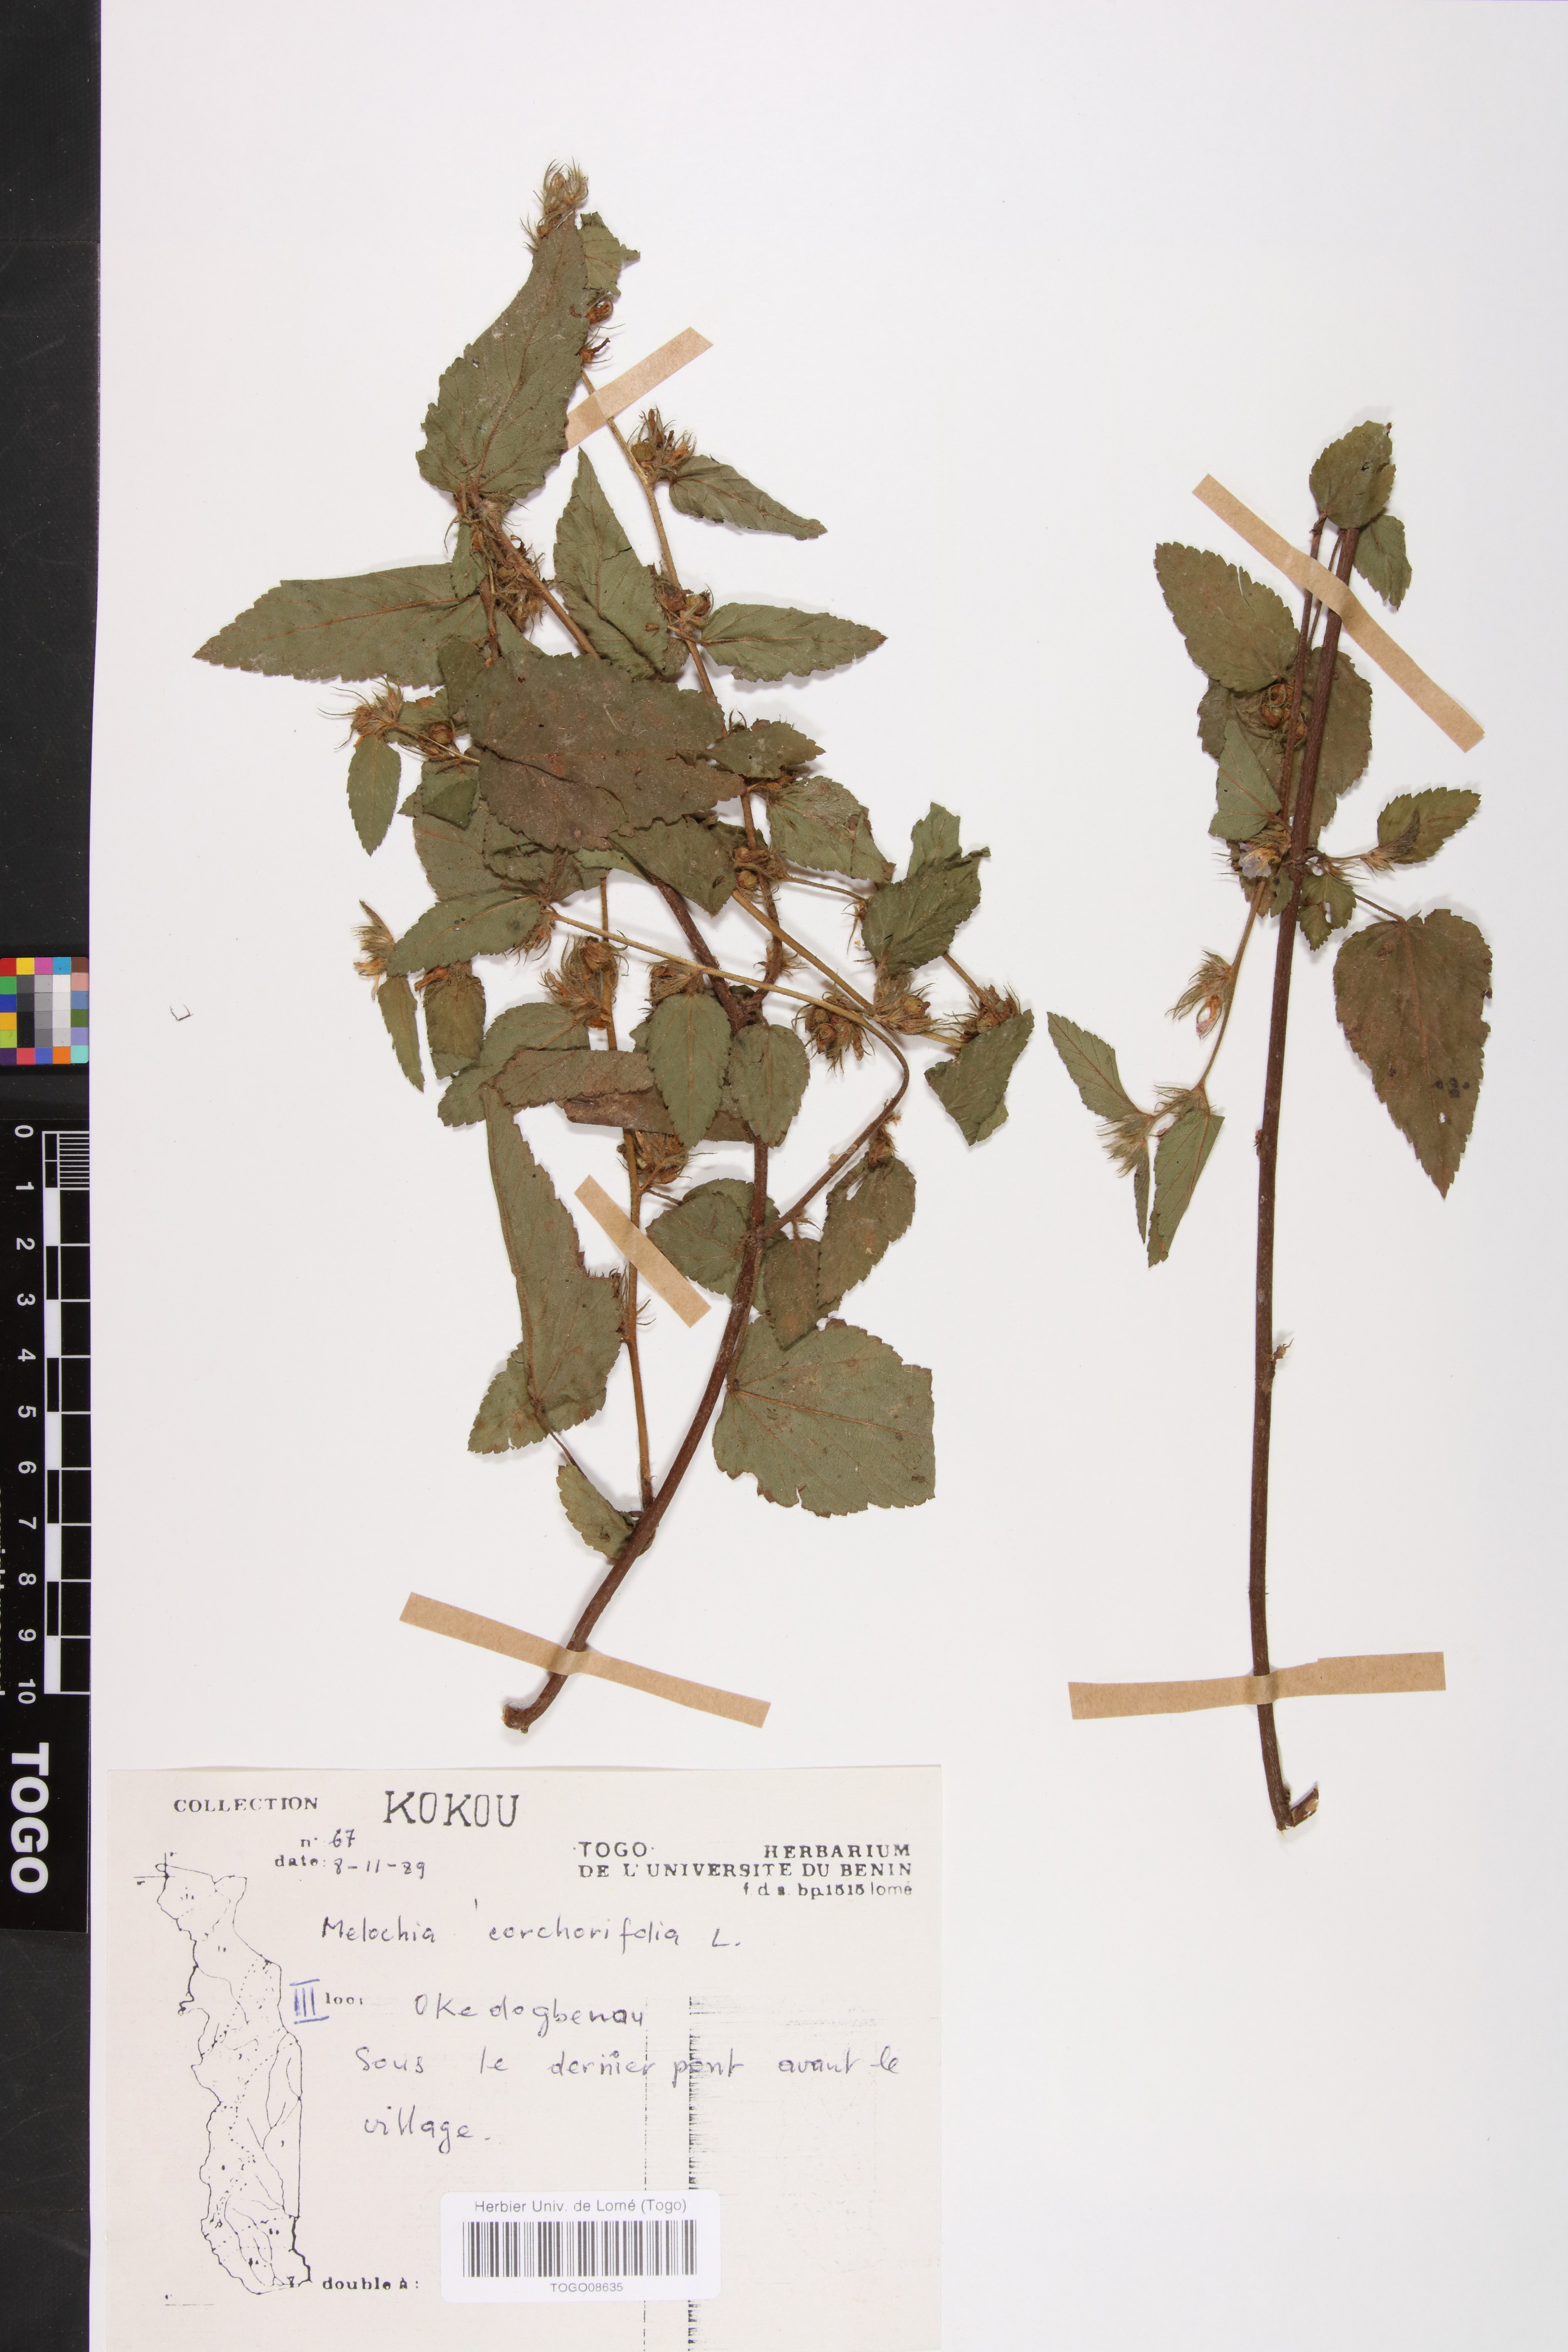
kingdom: Plantae
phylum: Tracheophyta
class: Magnoliopsida
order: Malvales
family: Malvaceae
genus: Melochia
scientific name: Melochia corchorifolia
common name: Chocolateweed
